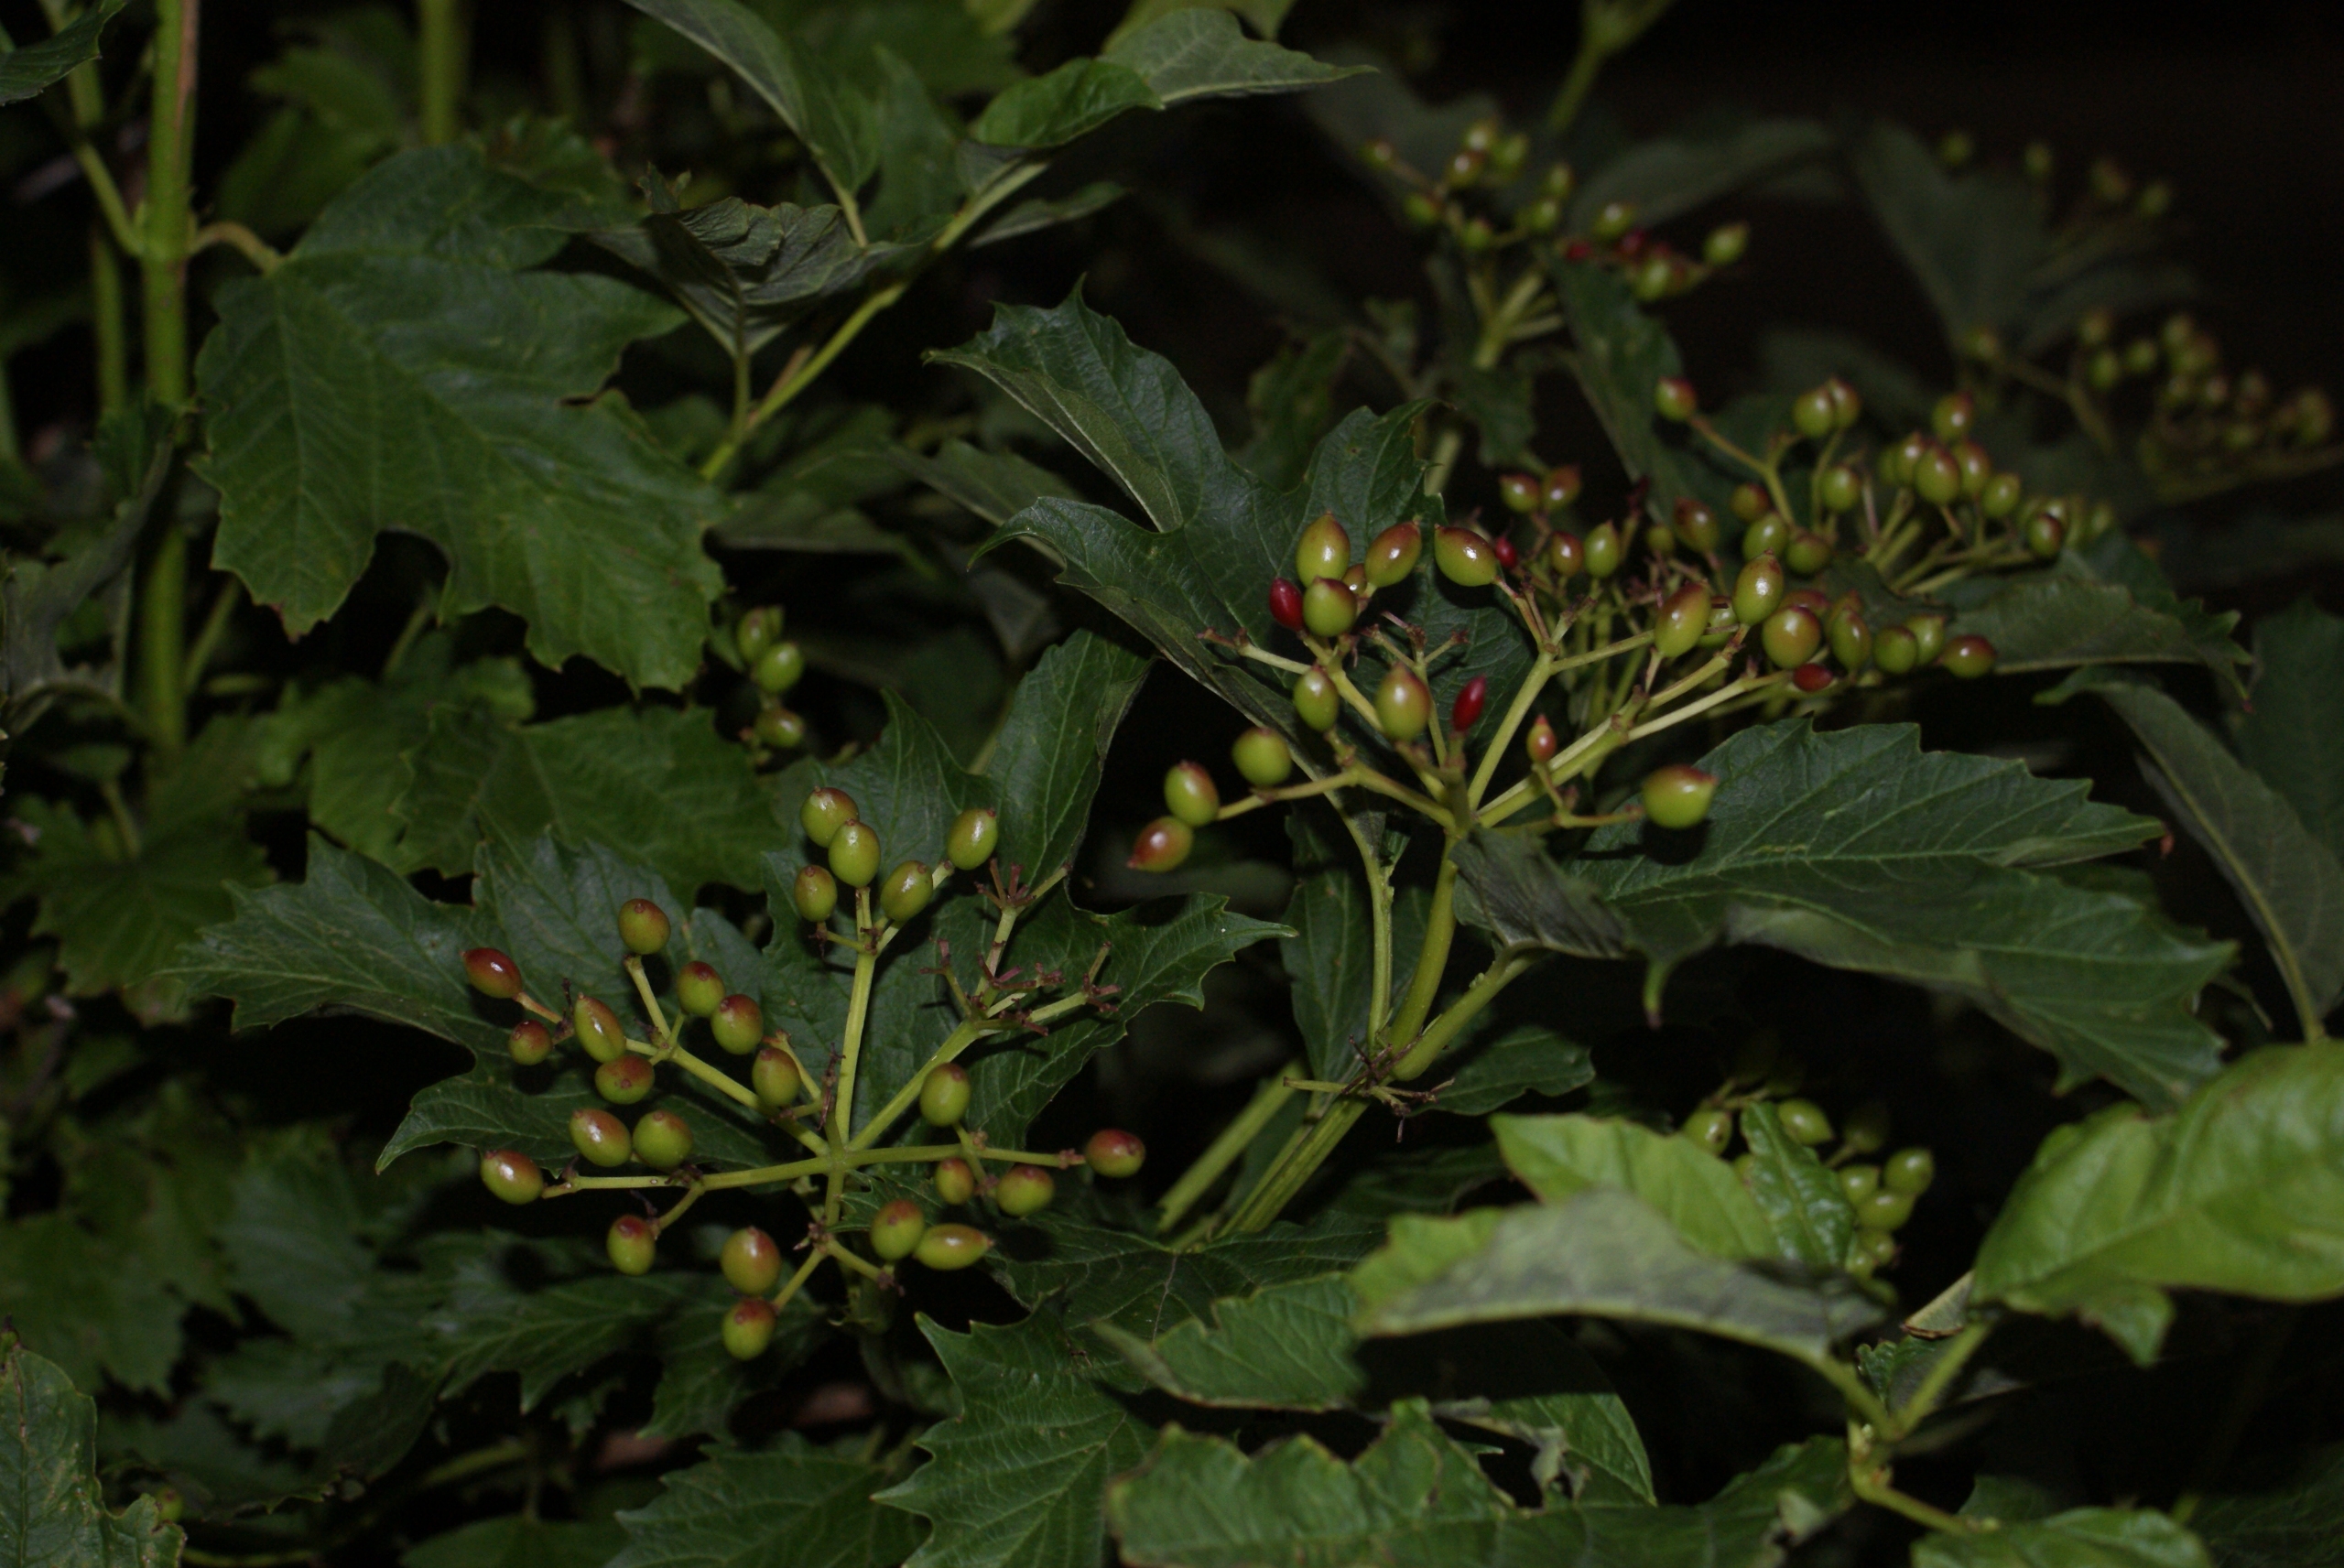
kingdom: Plantae
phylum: Tracheophyta
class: Magnoliopsida
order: Dipsacales
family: Viburnaceae
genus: Viburnum
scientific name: Viburnum opulus
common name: Kvalkved
